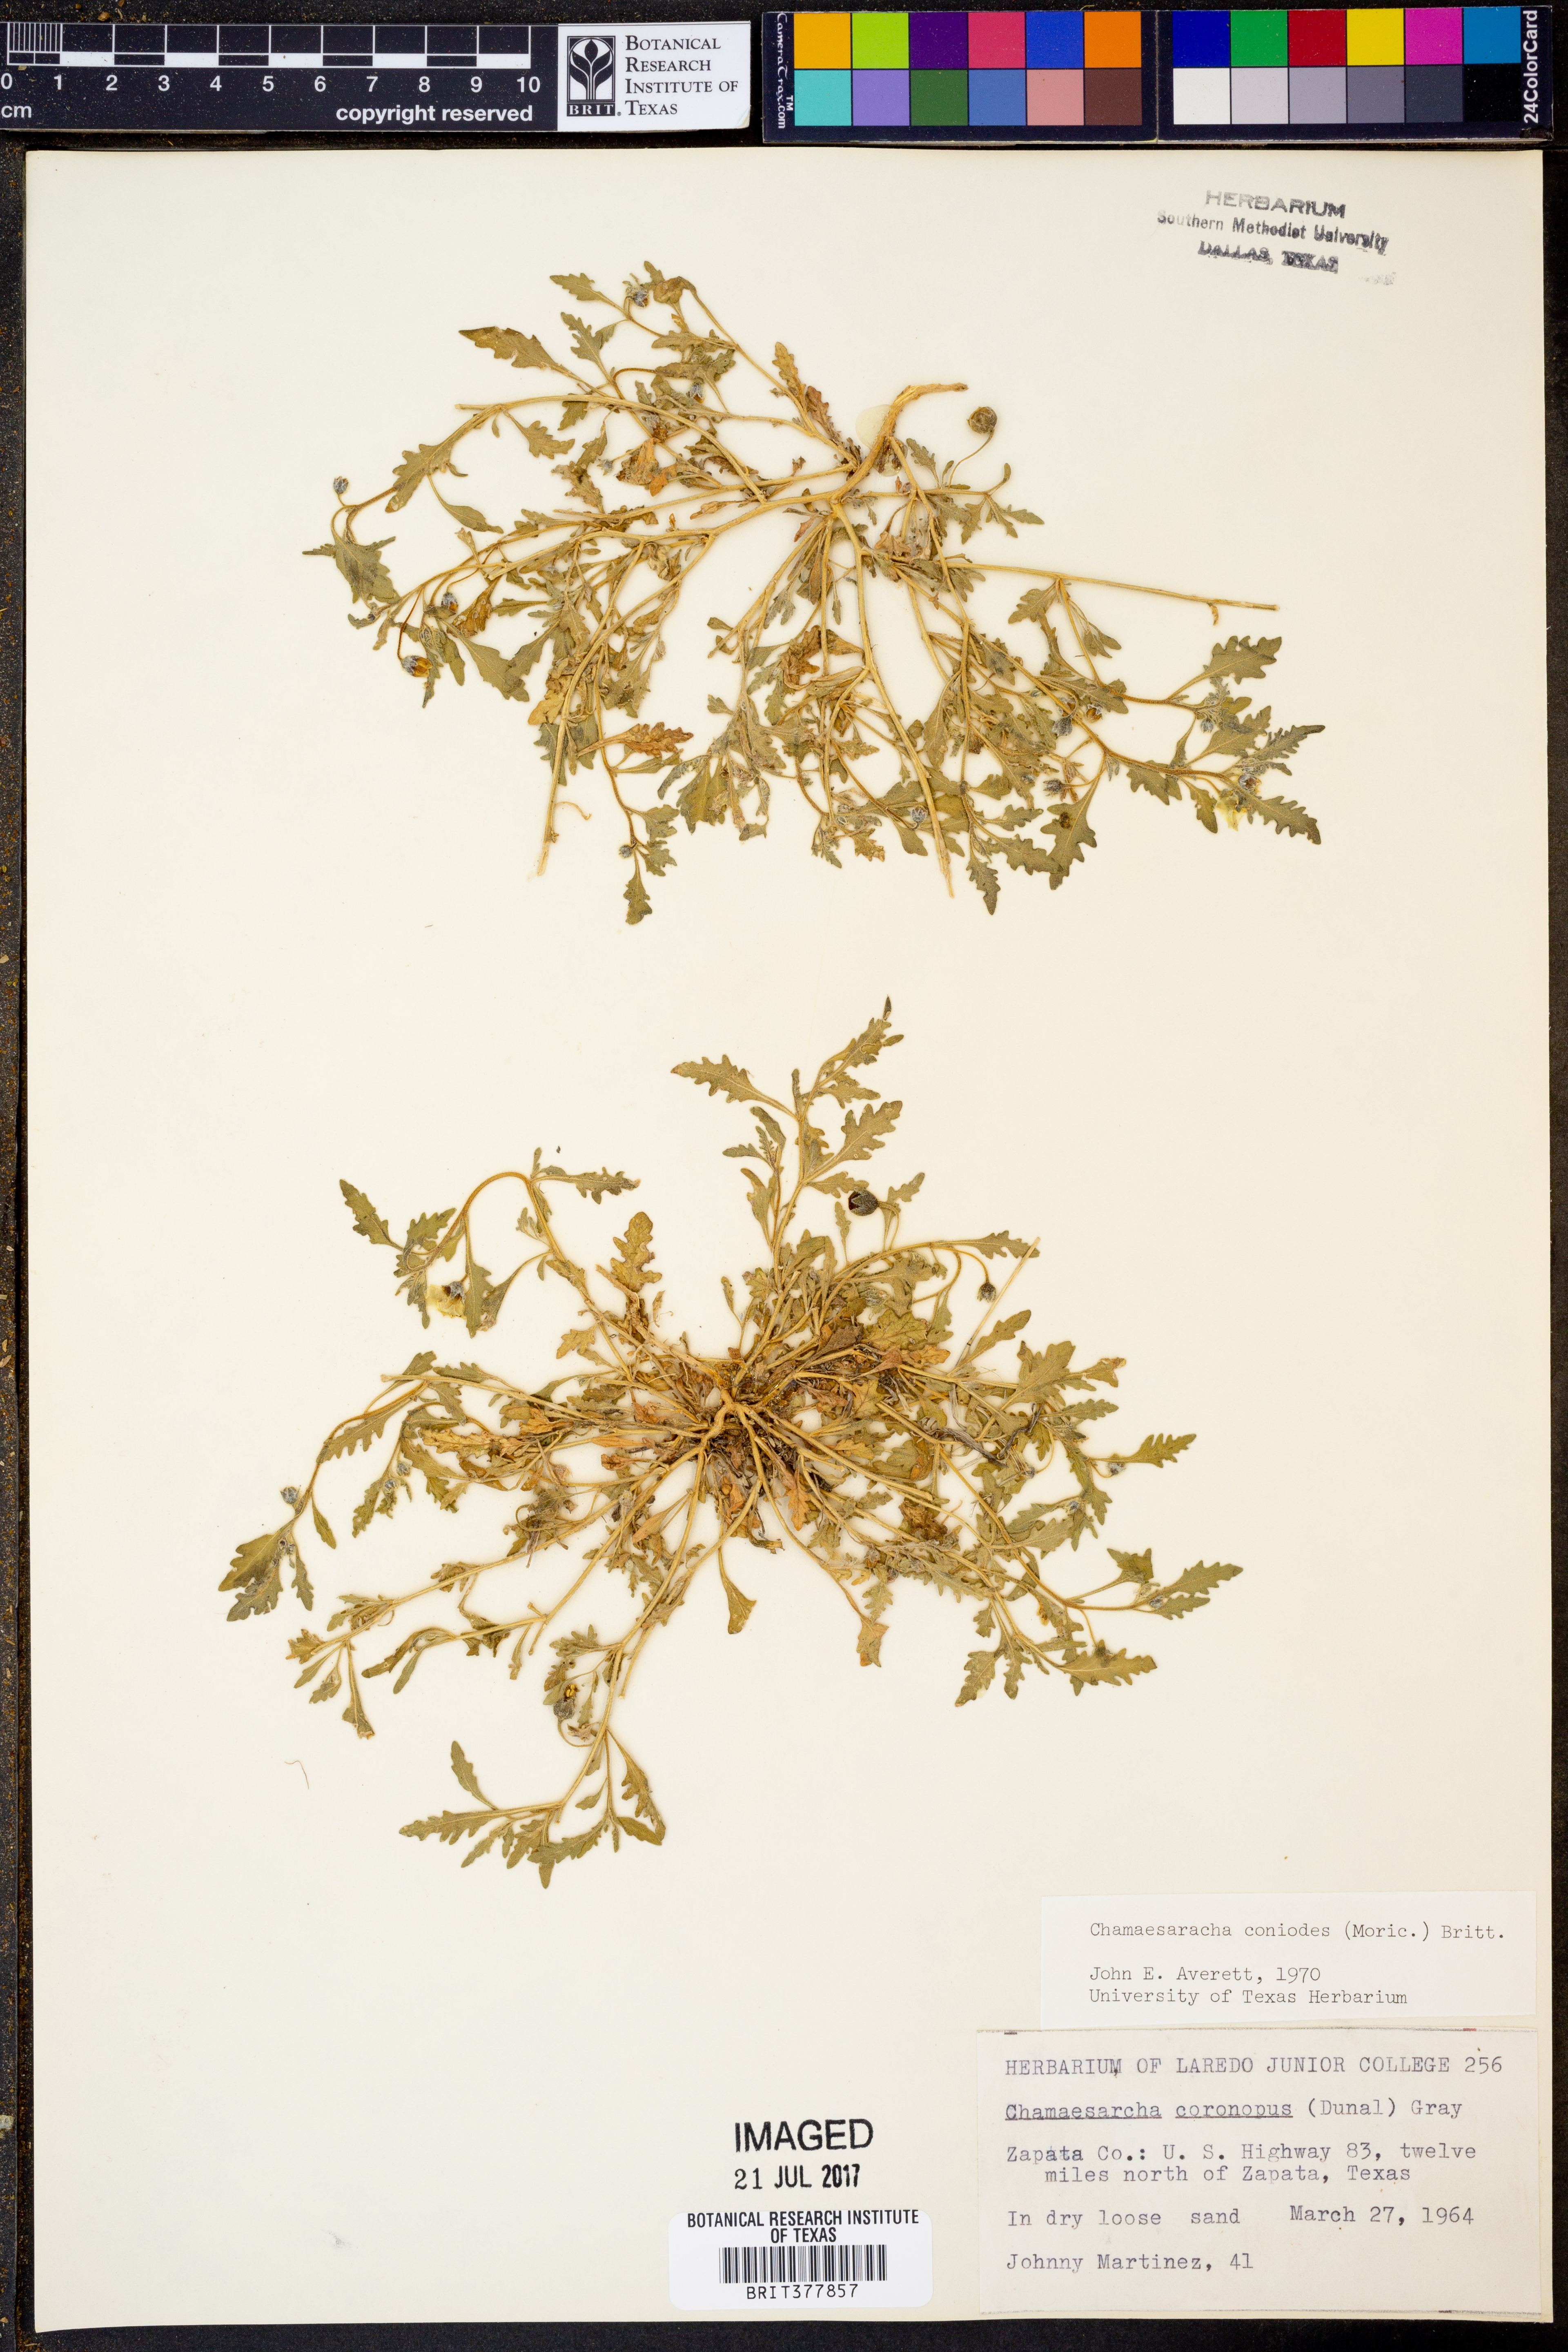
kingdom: Plantae
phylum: Tracheophyta
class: Magnoliopsida
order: Solanales
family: Solanaceae
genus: Chamaesaracha
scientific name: Chamaesaracha coniodes
